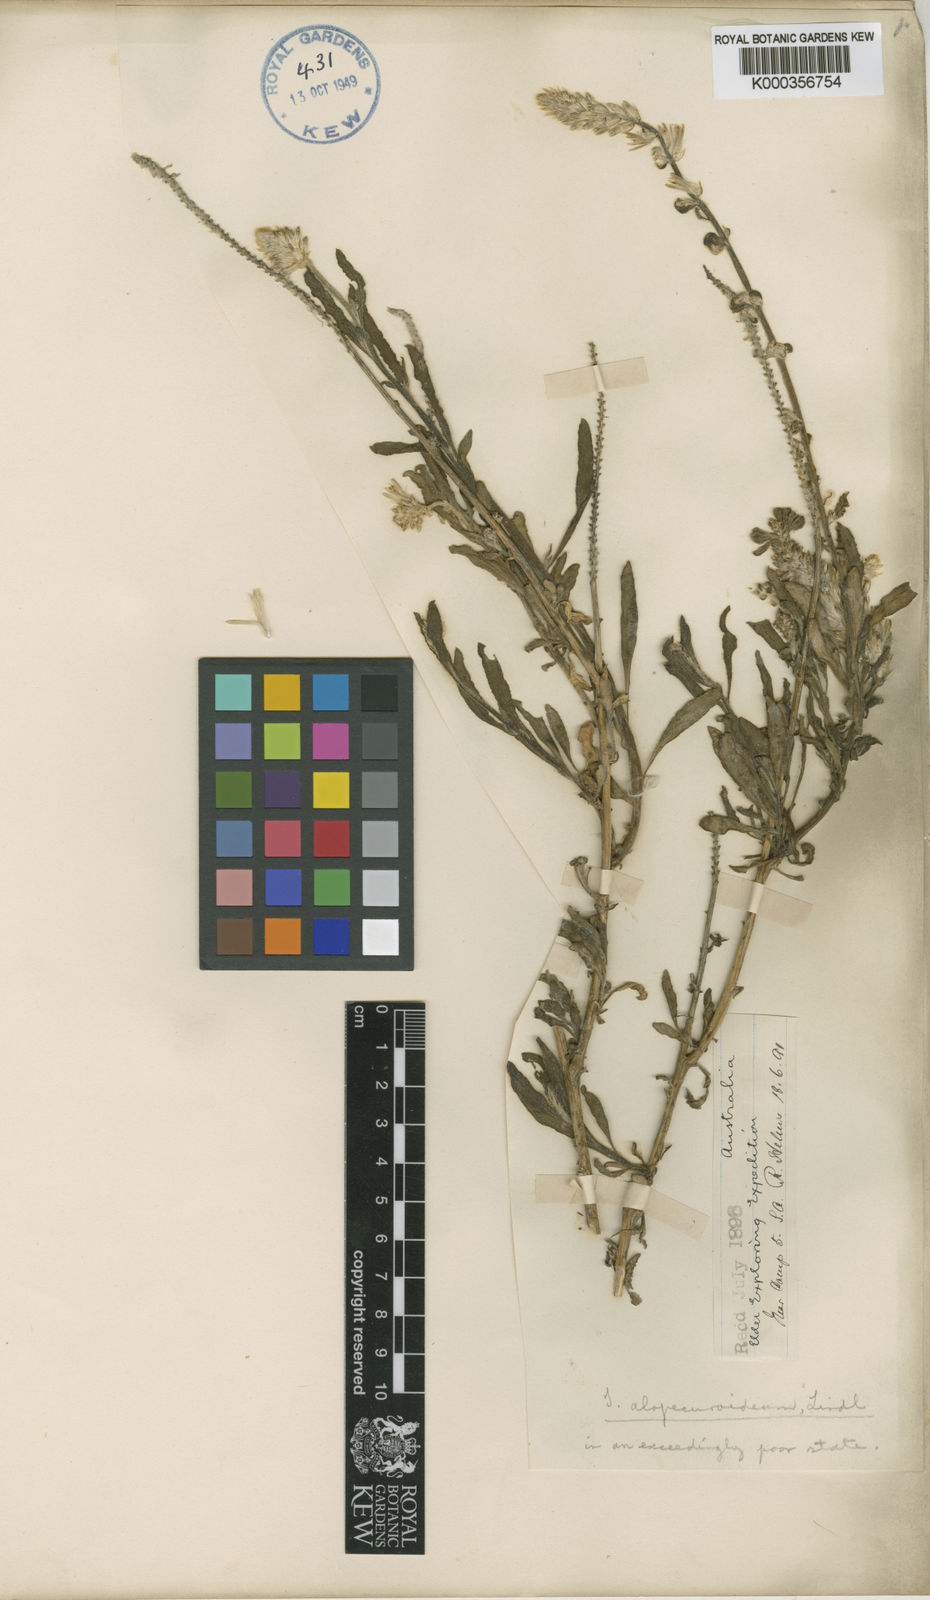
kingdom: Plantae
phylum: Tracheophyta
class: Magnoliopsida
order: Caryophyllales
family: Amaranthaceae
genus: Ptilotus
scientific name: Ptilotus polystachyus
